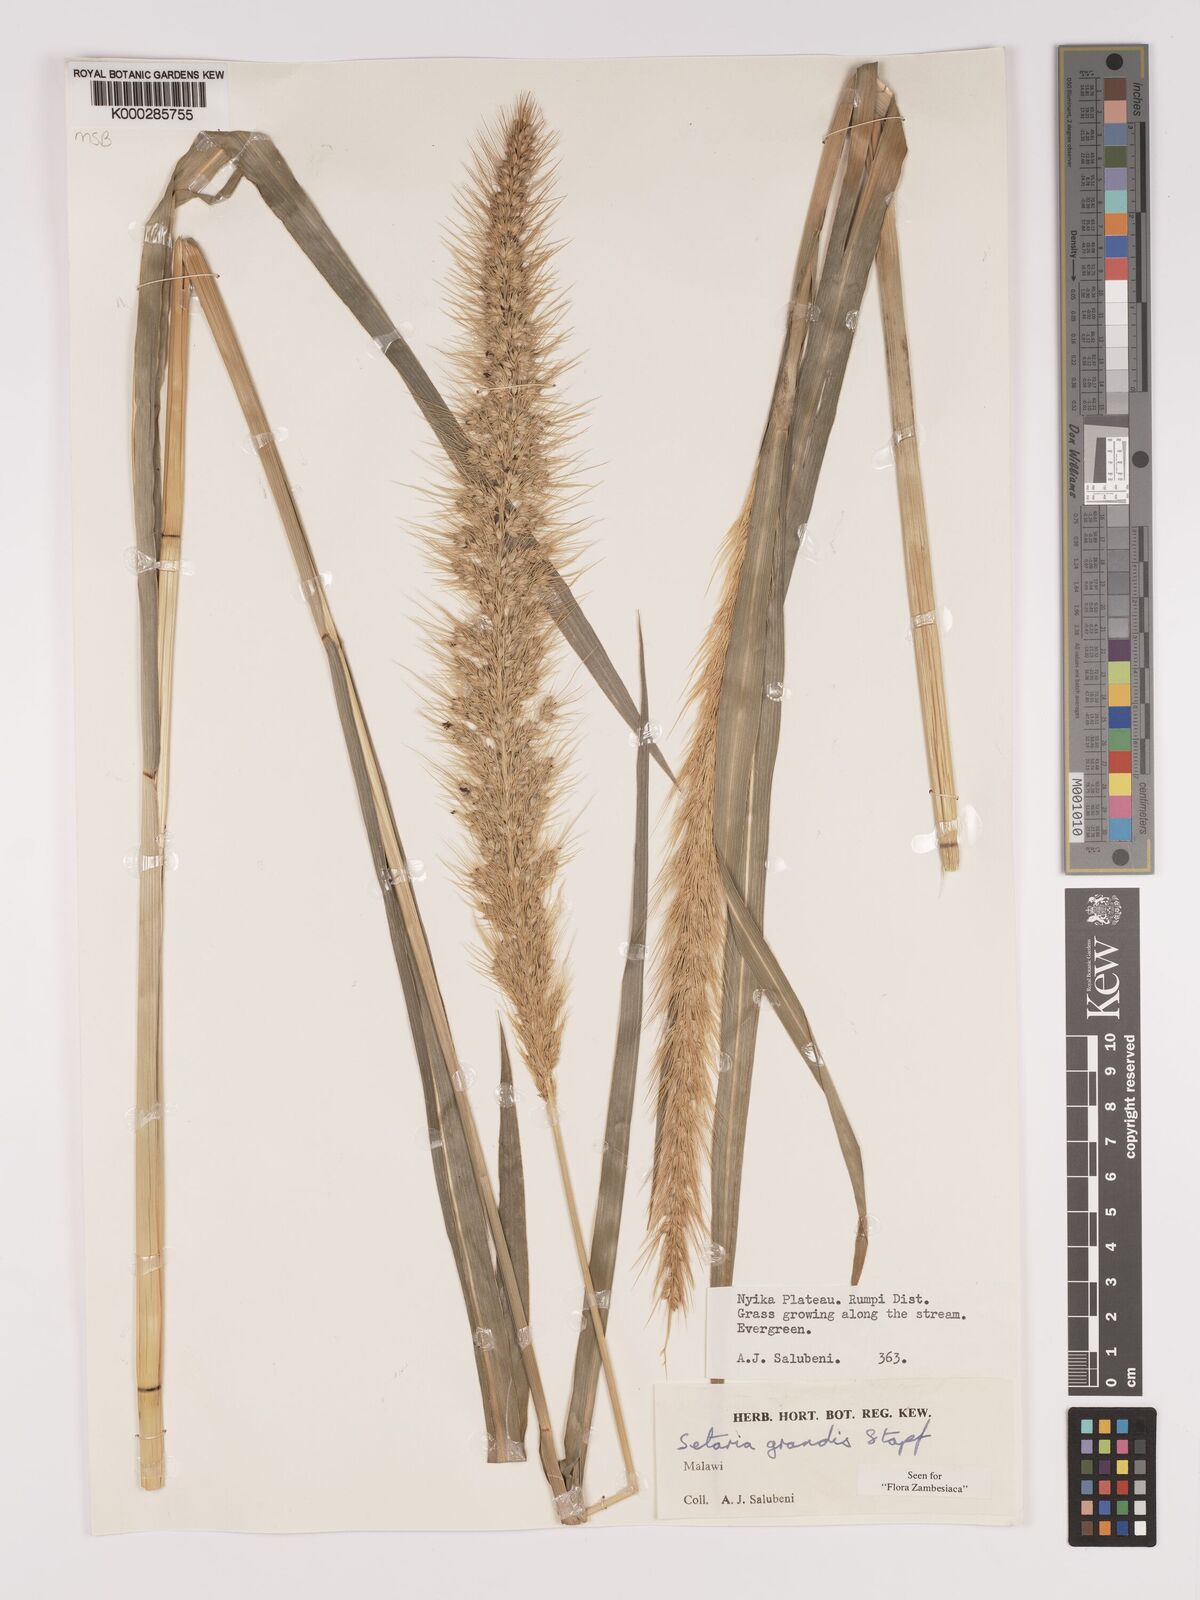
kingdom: Plantae
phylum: Tracheophyta
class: Liliopsida
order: Poales
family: Poaceae
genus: Setaria
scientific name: Setaria grandis
